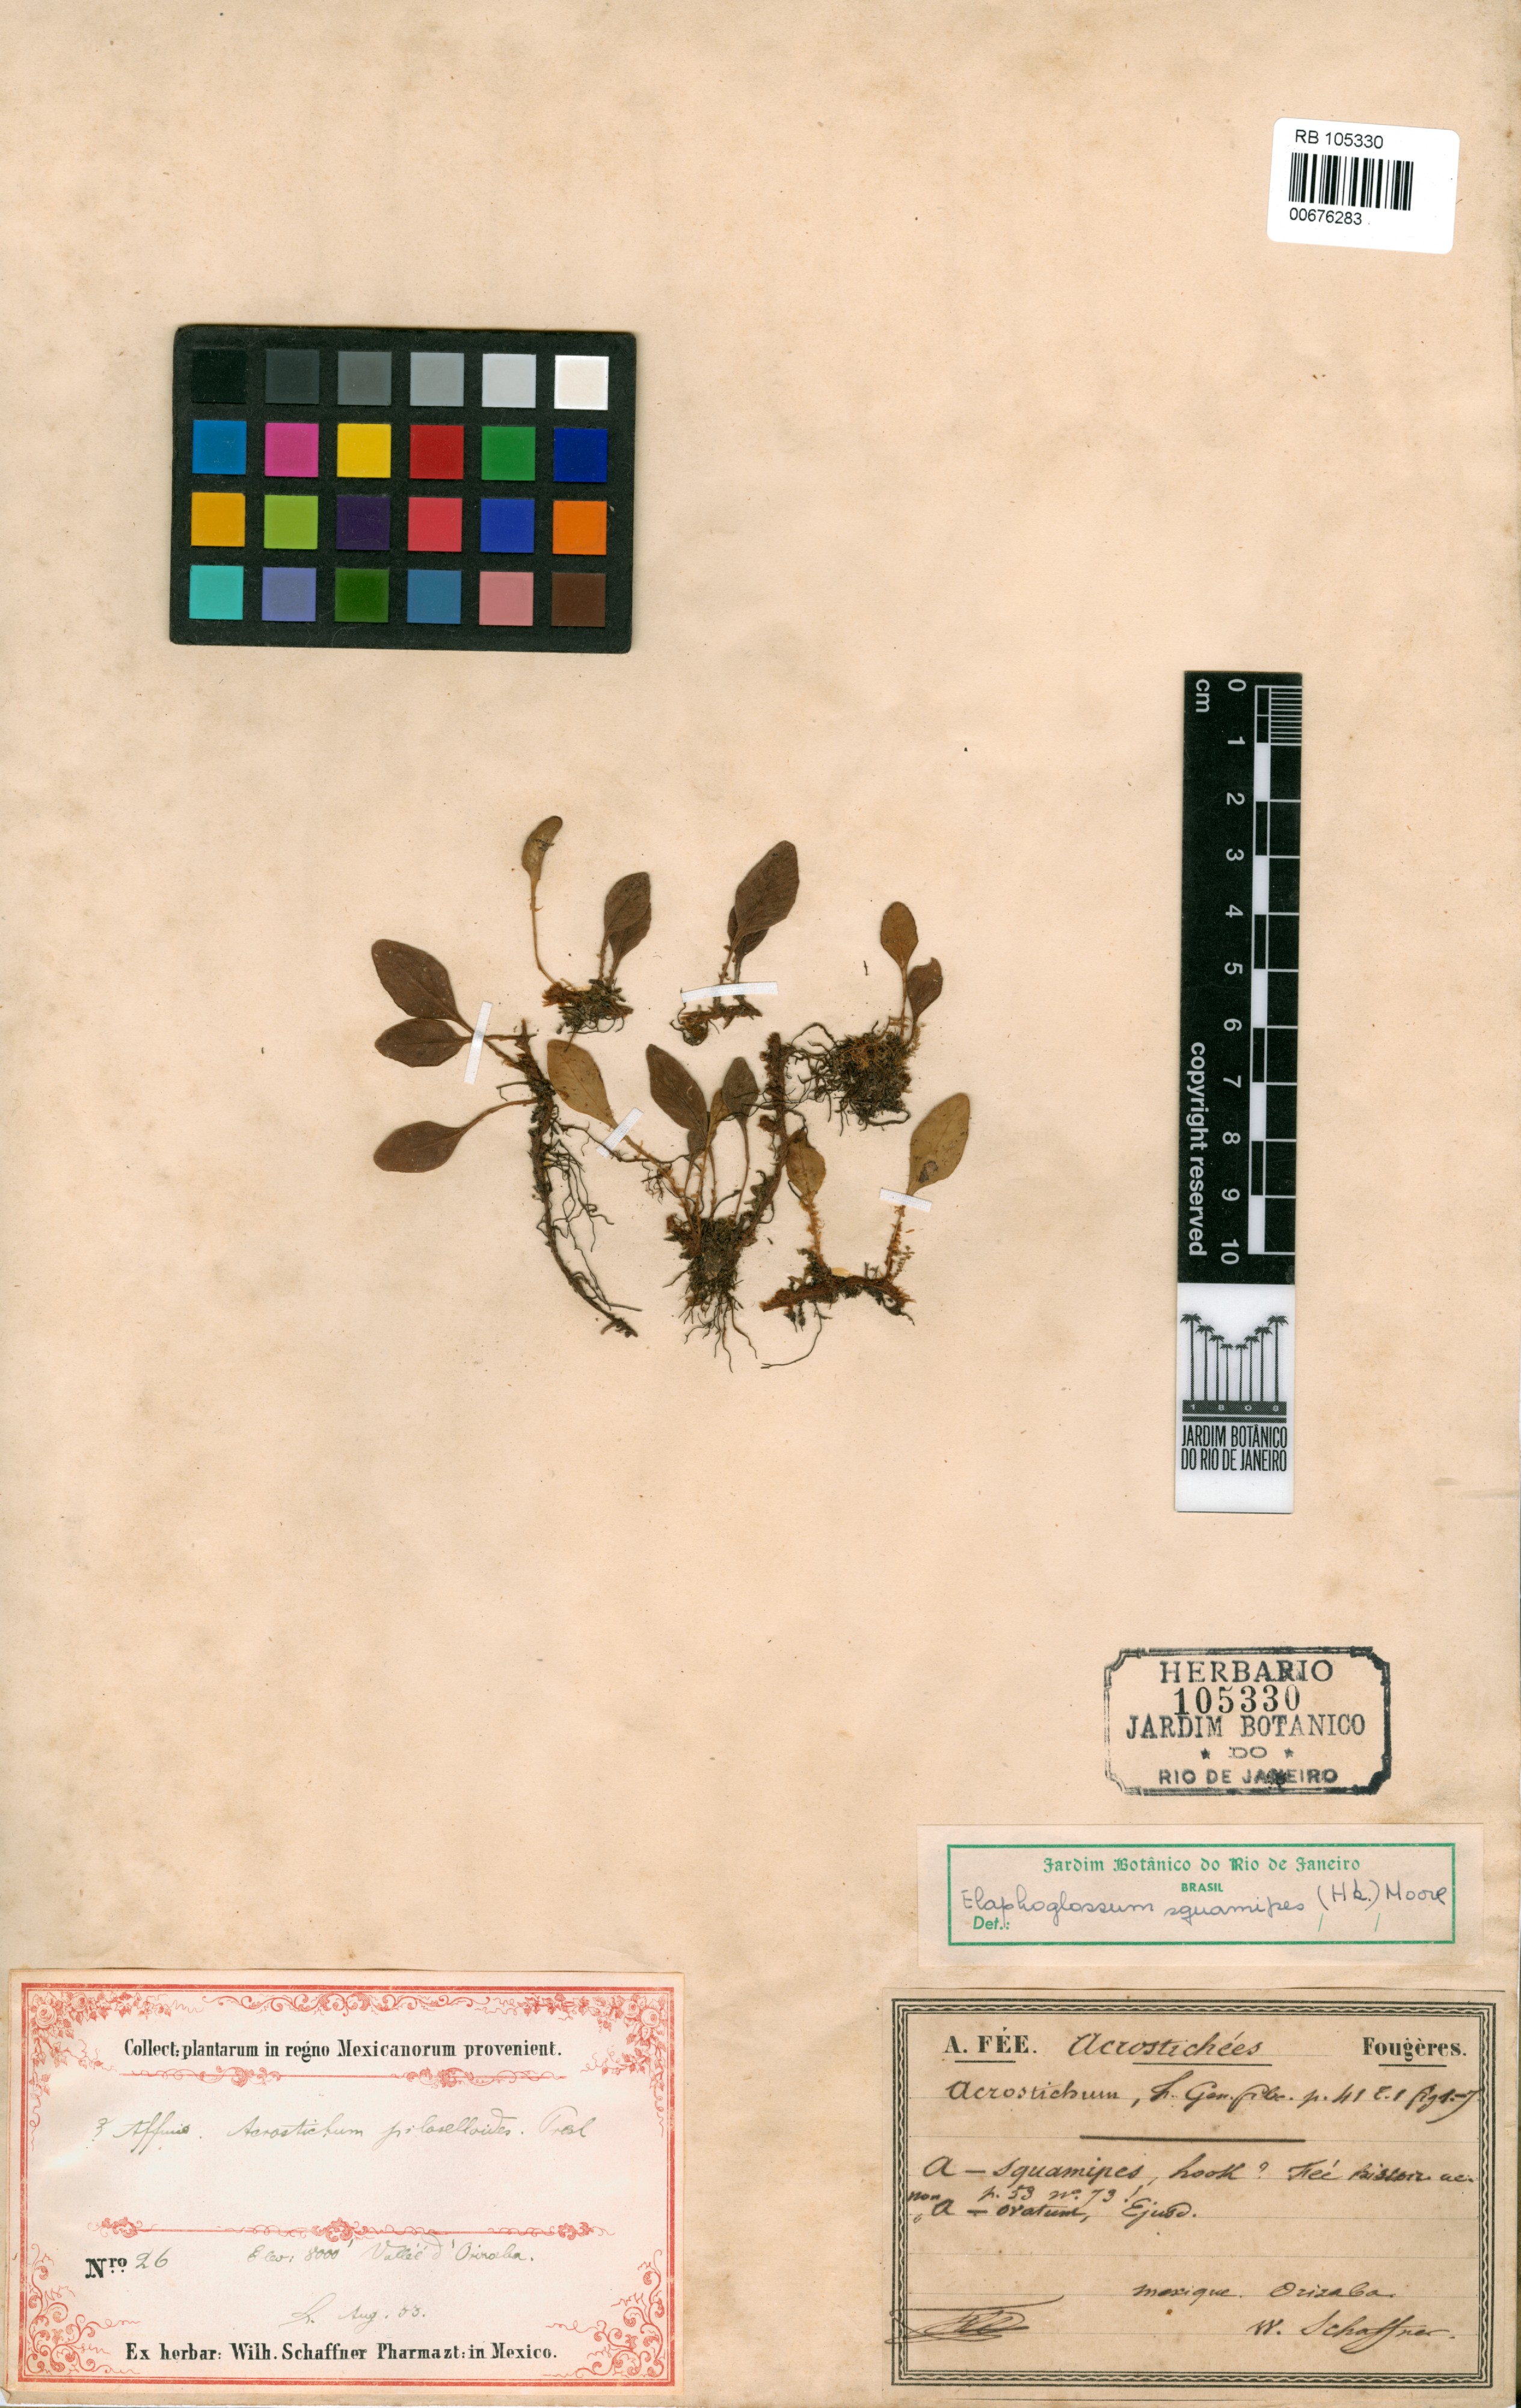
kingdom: Plantae
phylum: Tracheophyta
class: Polypodiopsida
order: Polypodiales
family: Dryopteridaceae
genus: Elaphoglossum
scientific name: Elaphoglossum squamipes
